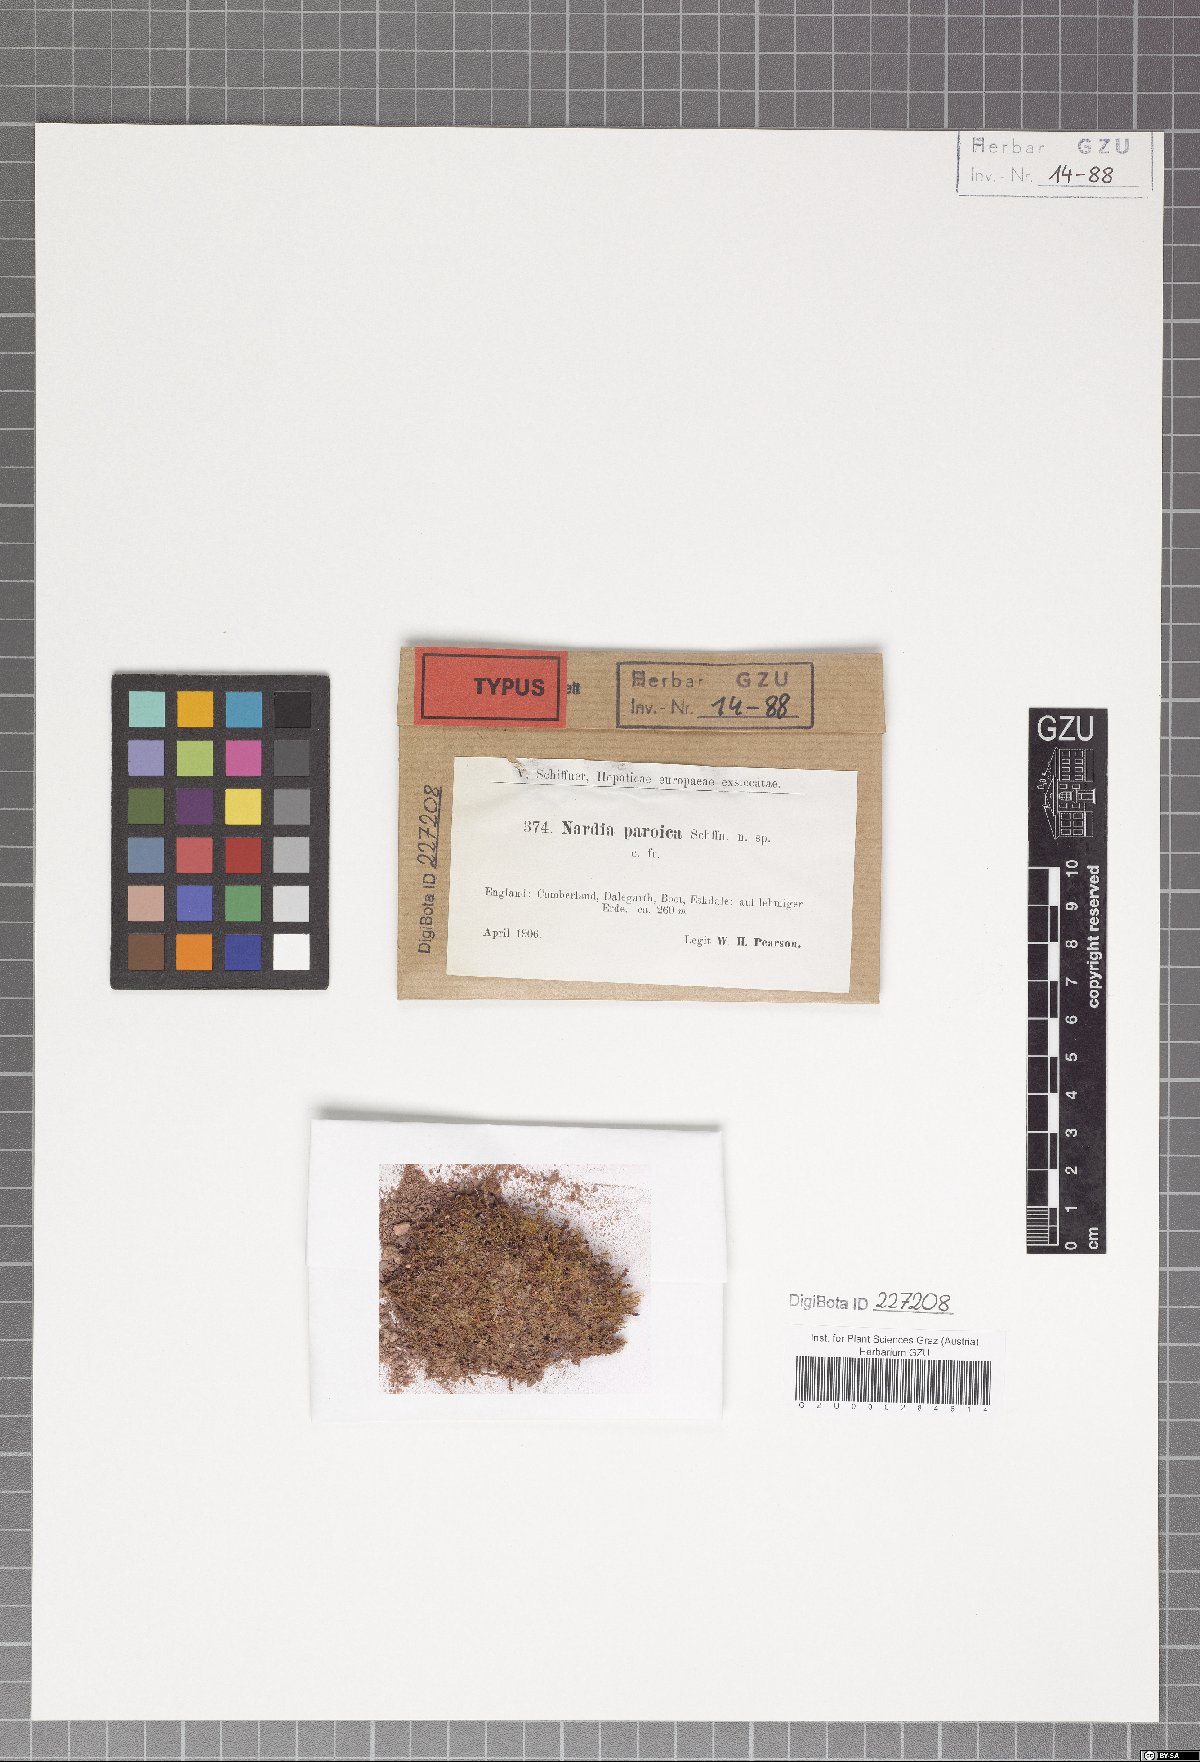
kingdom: Plantae
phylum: Marchantiophyta
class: Jungermanniopsida
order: Jungermanniales
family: Solenostomataceae
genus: Solenostoma
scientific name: Solenostoma paroicum
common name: Shining flapwort
